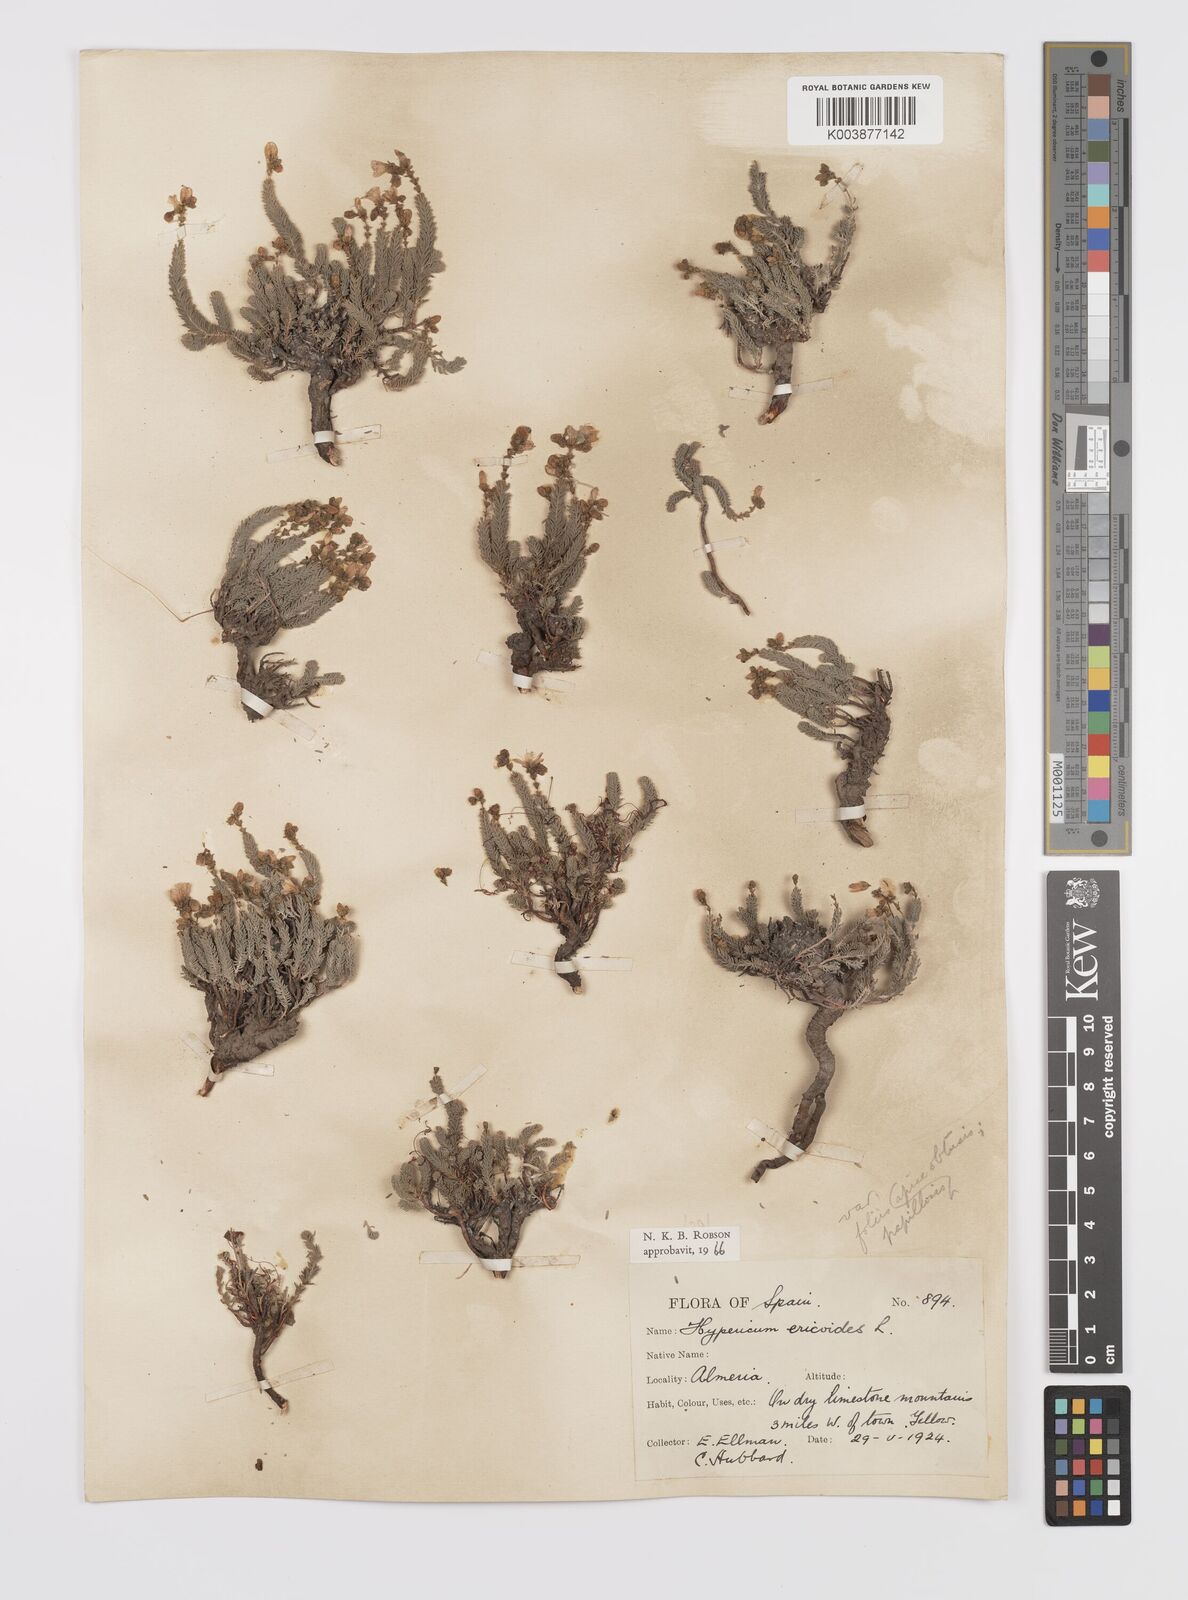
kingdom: Plantae
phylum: Tracheophyta
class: Magnoliopsida
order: Malpighiales
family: Hypericaceae
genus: Hypericum
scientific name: Hypericum ericoides
